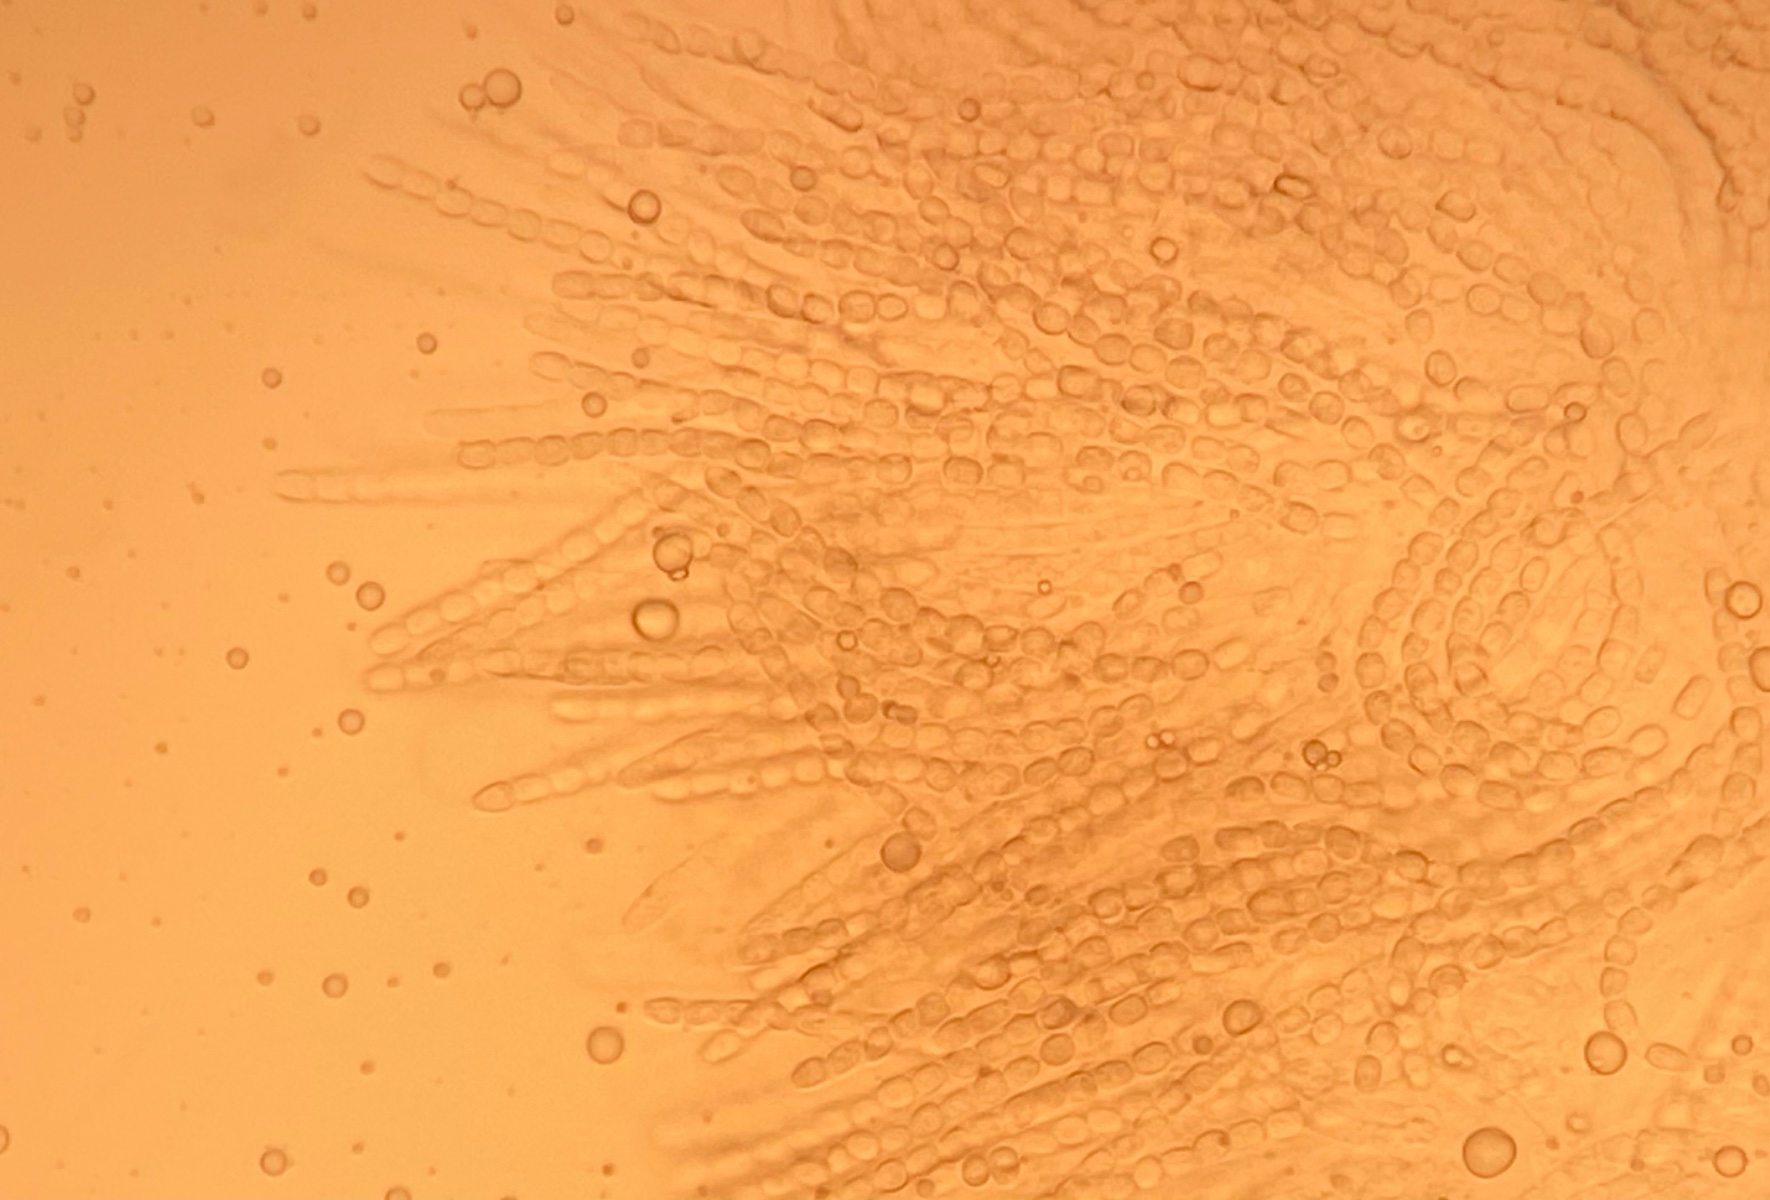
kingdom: Fungi
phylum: Ascomycota
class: Sordariomycetes
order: Hypocreales
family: Hypocreaceae
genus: Trichoderma
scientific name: Trichoderma
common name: kødkerne
